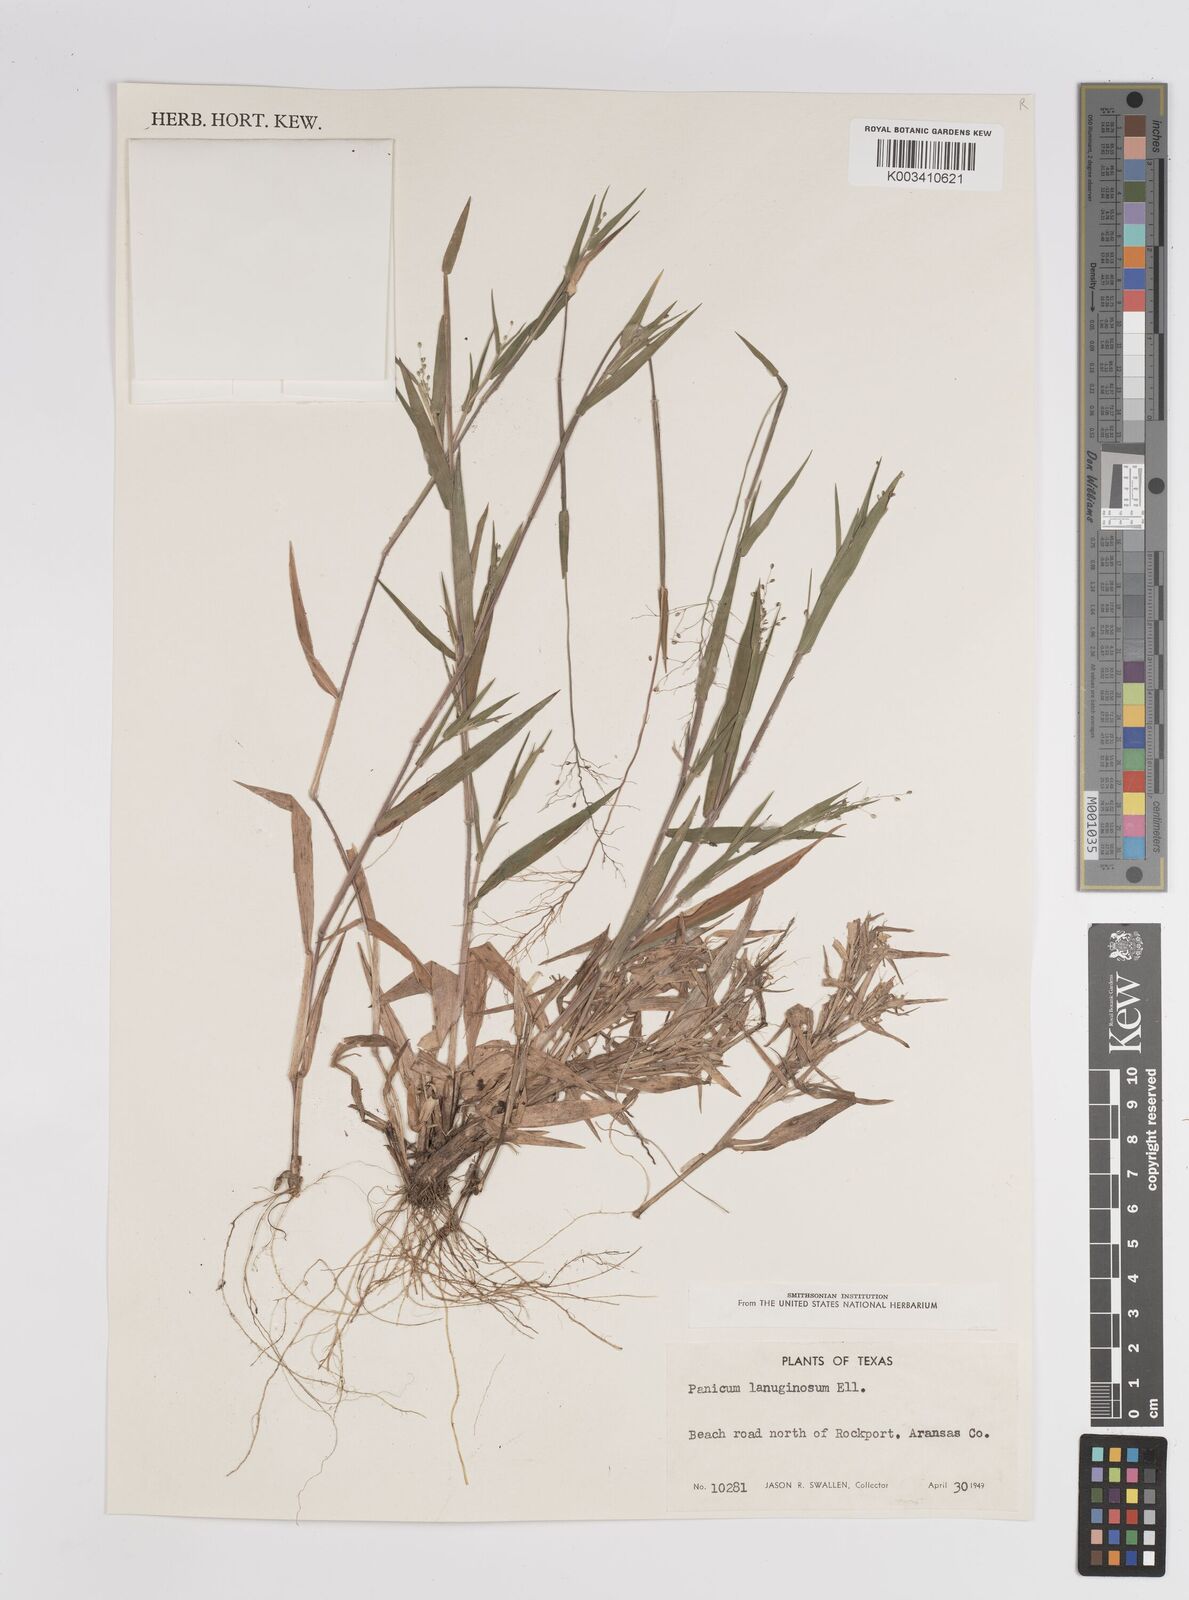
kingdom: Plantae
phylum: Tracheophyta
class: Liliopsida
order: Poales
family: Poaceae
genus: Dichanthelium
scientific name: Dichanthelium lanuginosum
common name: Woolly panicgrass
